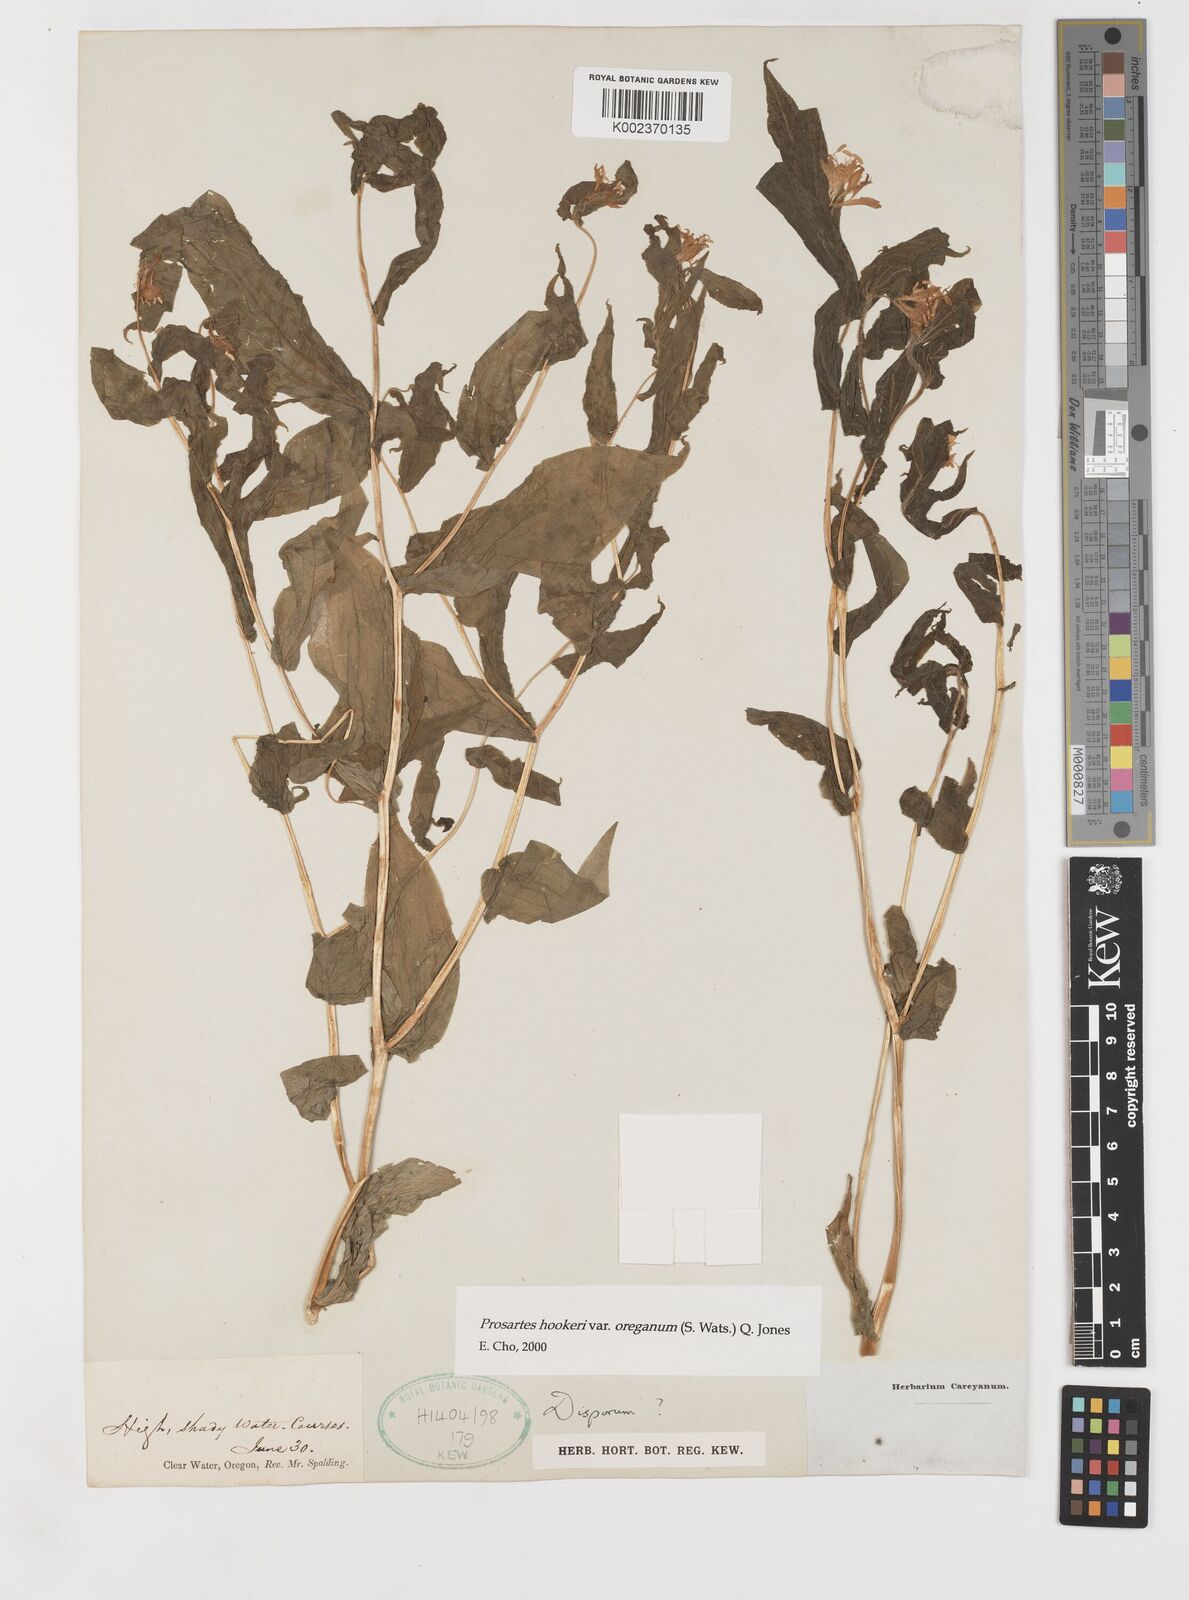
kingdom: Plantae
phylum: Tracheophyta
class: Liliopsida
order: Liliales
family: Liliaceae
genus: Prosartes
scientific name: Prosartes hookeri
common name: Fairy-bells
